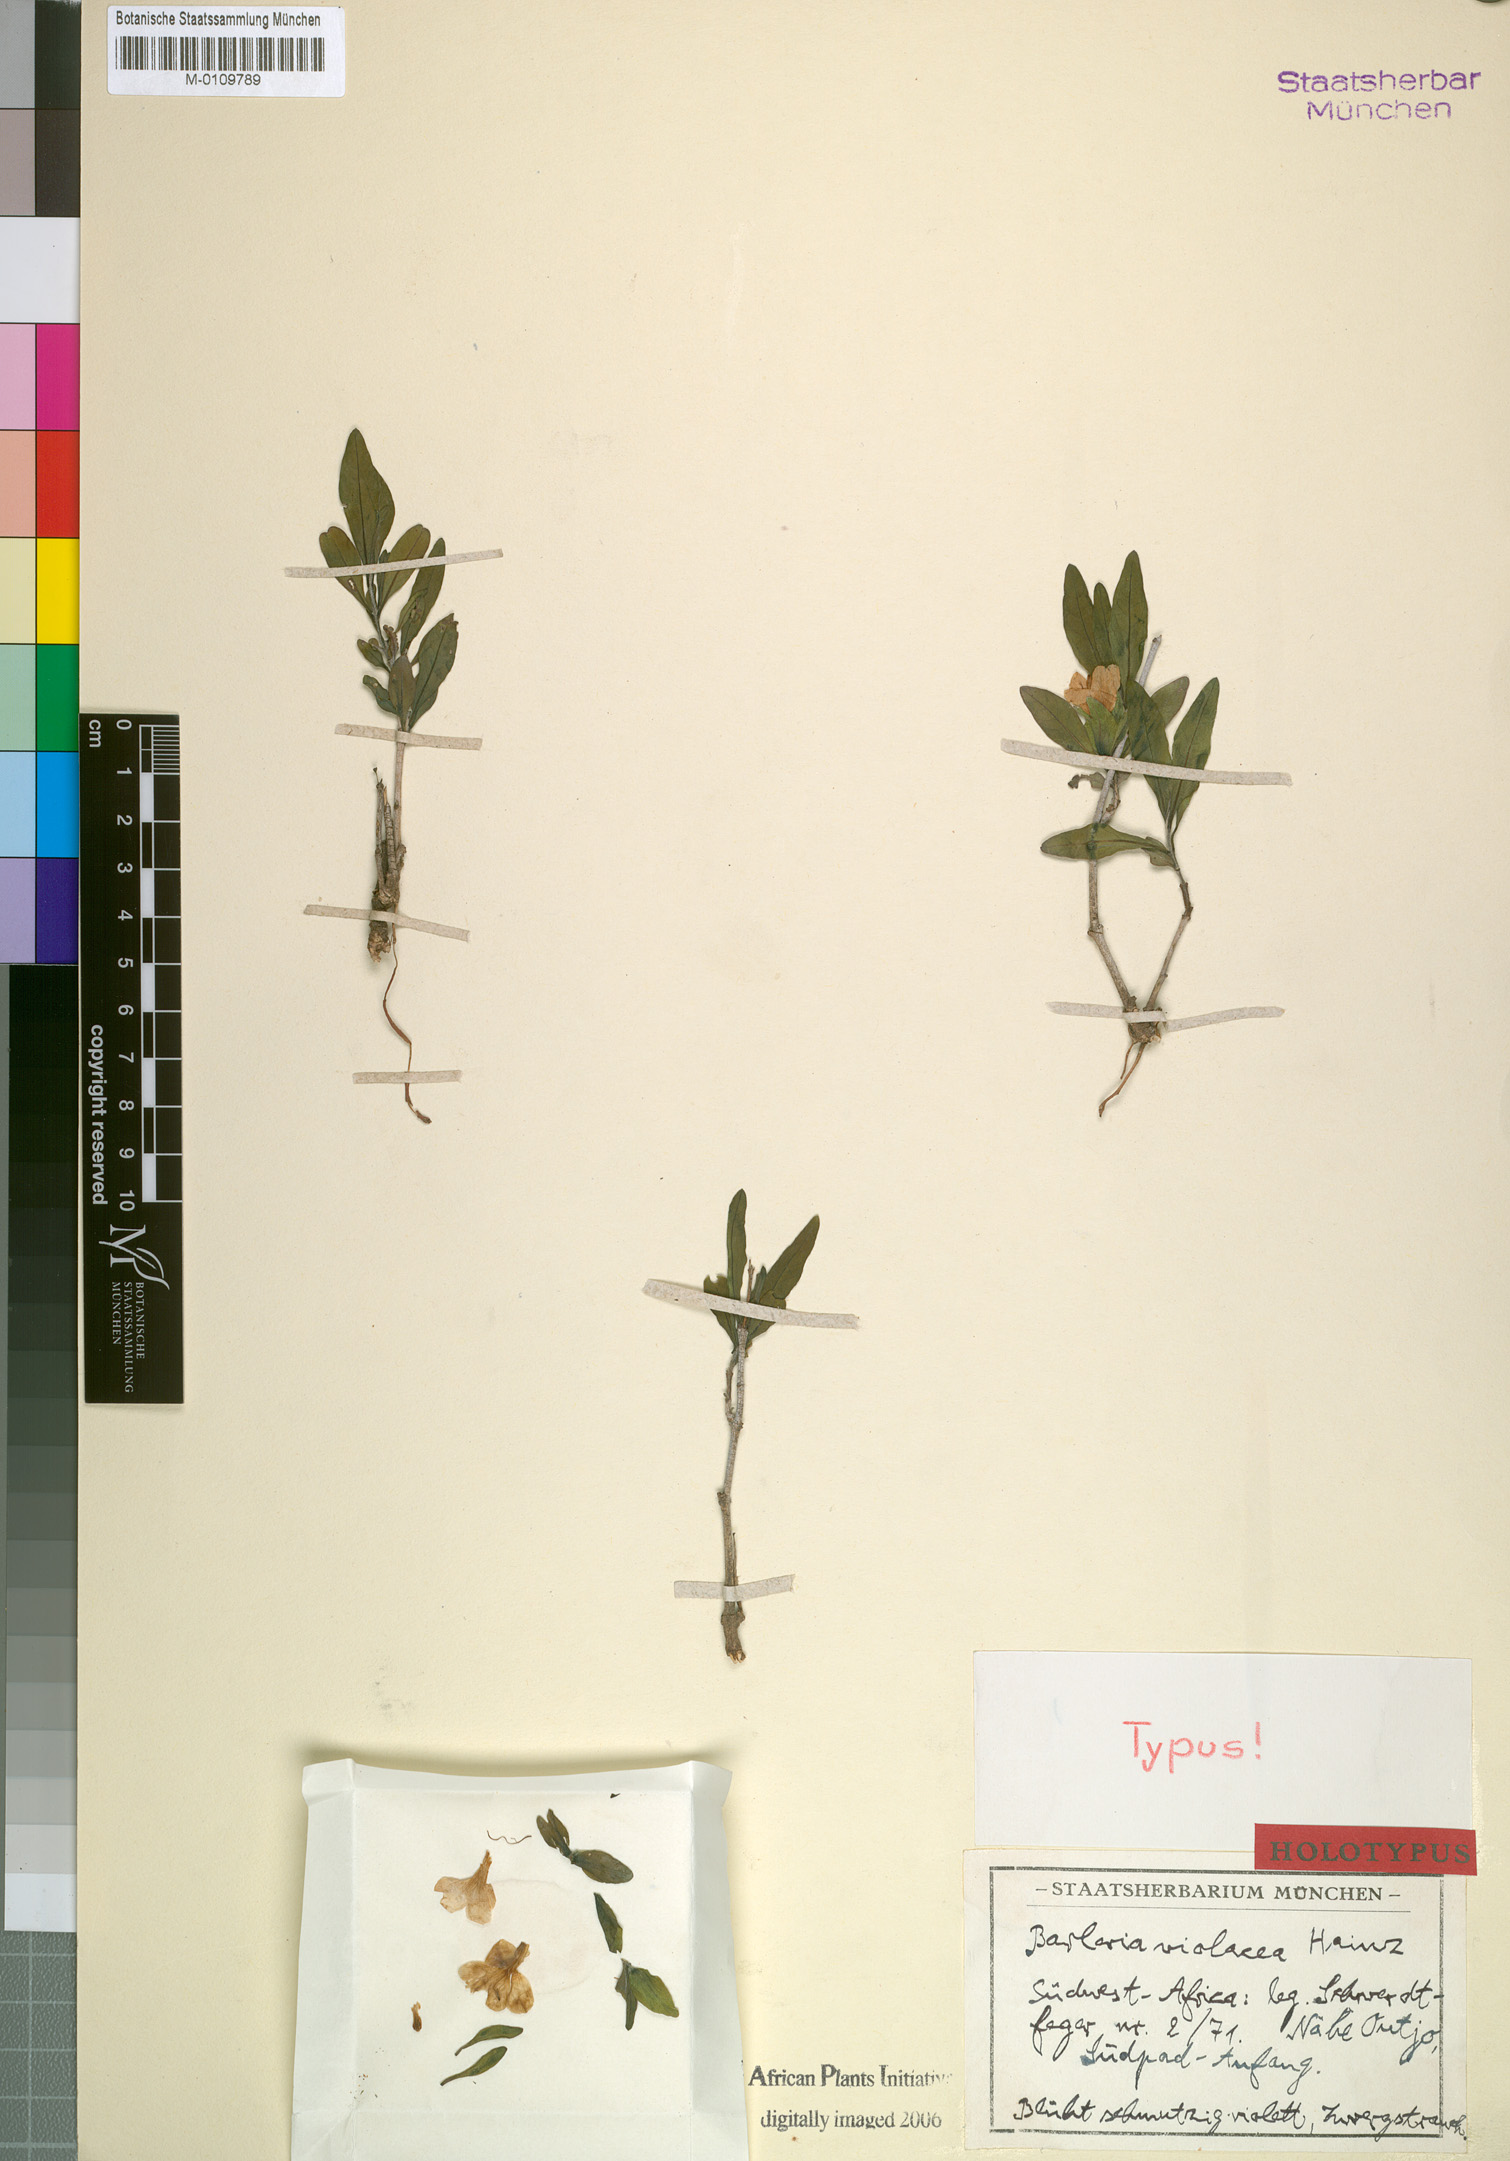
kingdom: Plantae
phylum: Tracheophyta
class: Magnoliopsida
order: Lamiales
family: Acanthaceae
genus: Barleria
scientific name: Barleria violacea
